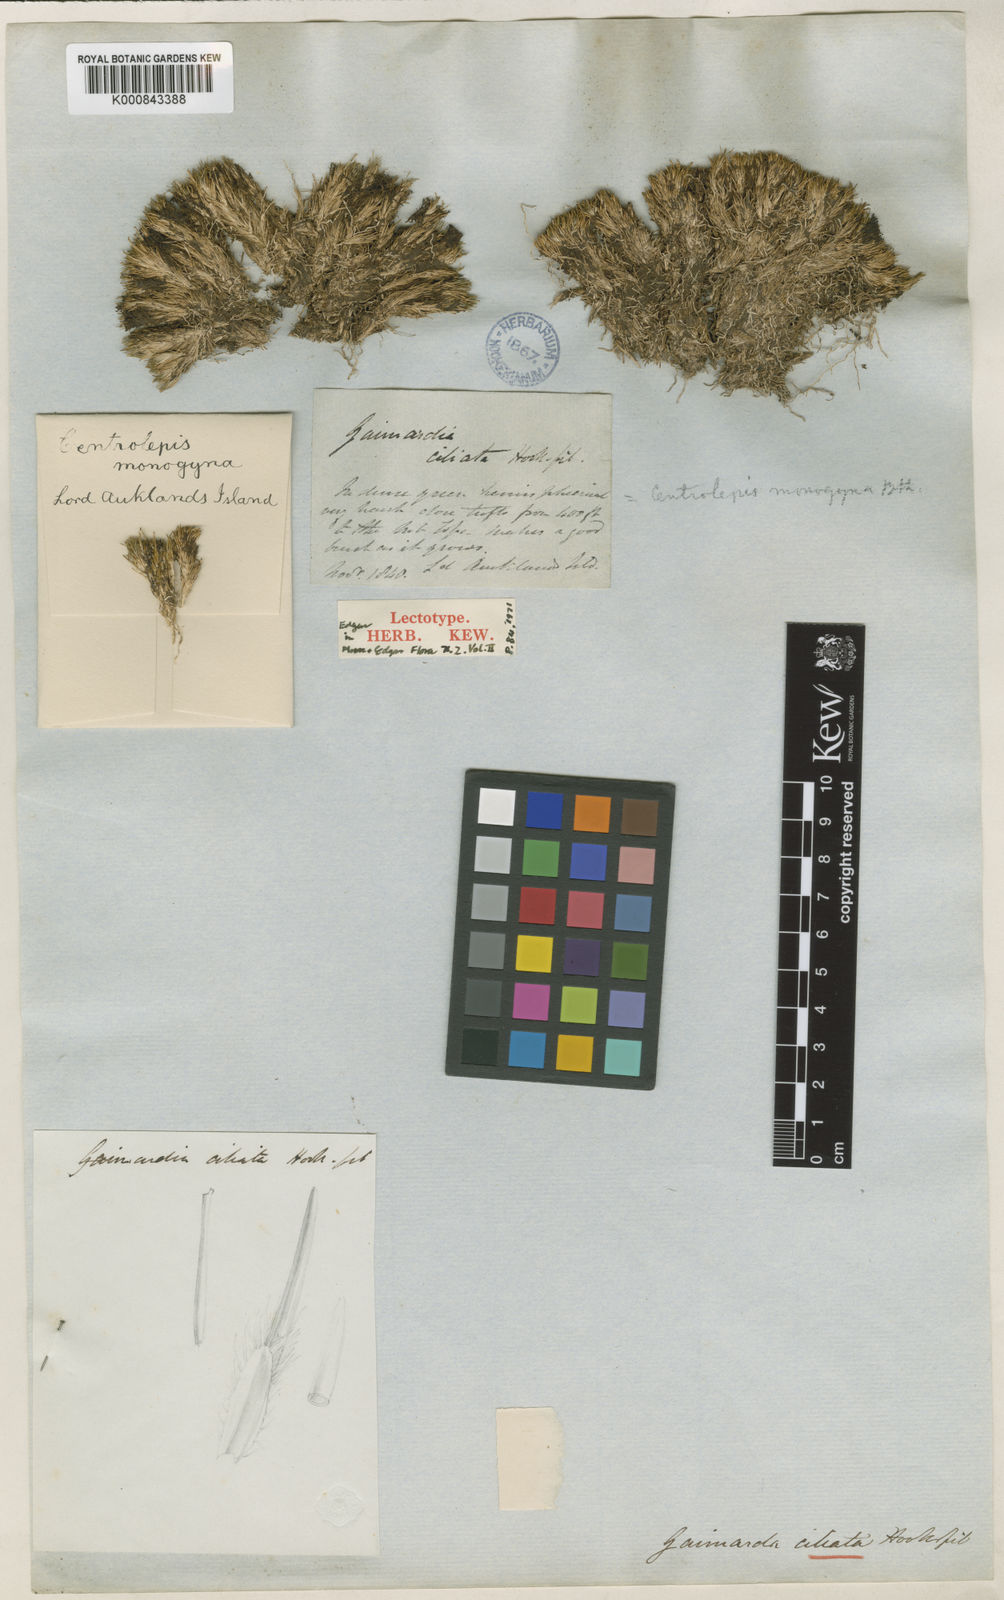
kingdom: Plantae
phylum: Tracheophyta
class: Liliopsida
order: Poales
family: Restionaceae
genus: Centrolepis
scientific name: Centrolepis ciliata
